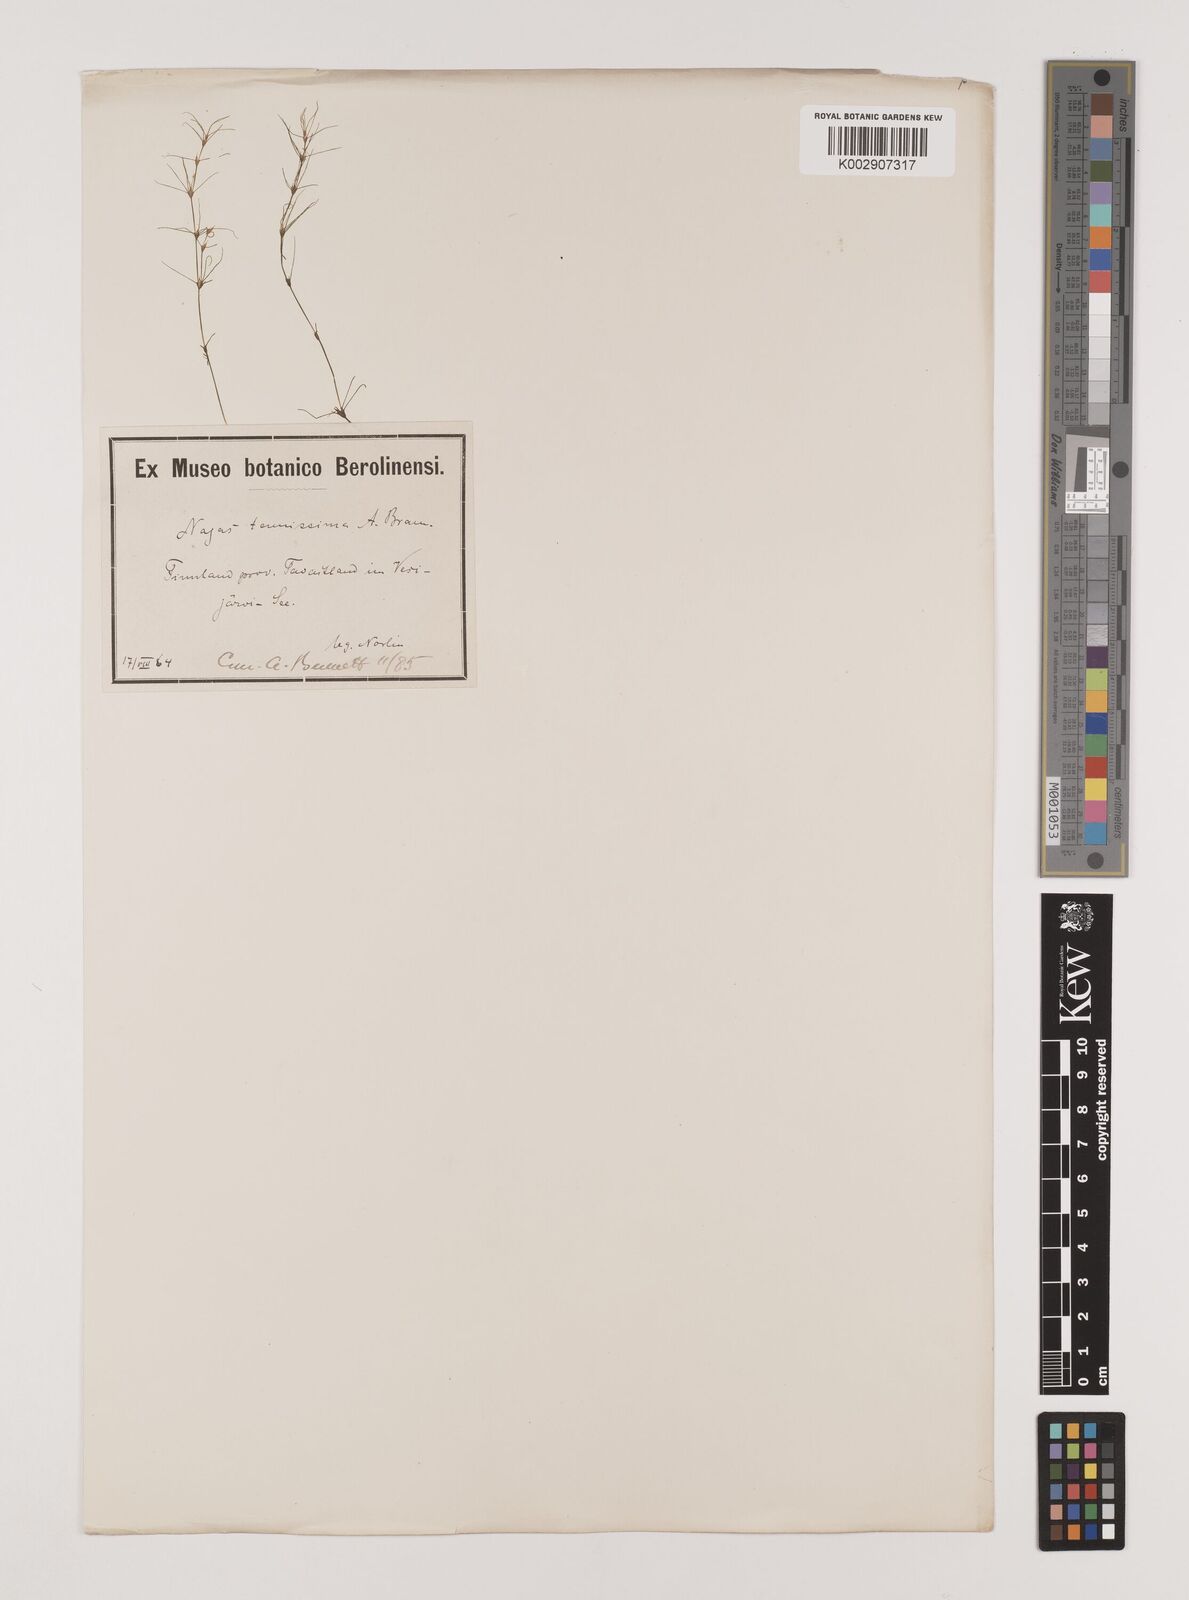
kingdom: Plantae
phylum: Tracheophyta
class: Liliopsida
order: Alismatales
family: Hydrocharitaceae
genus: Najas
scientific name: Najas tenuissima
